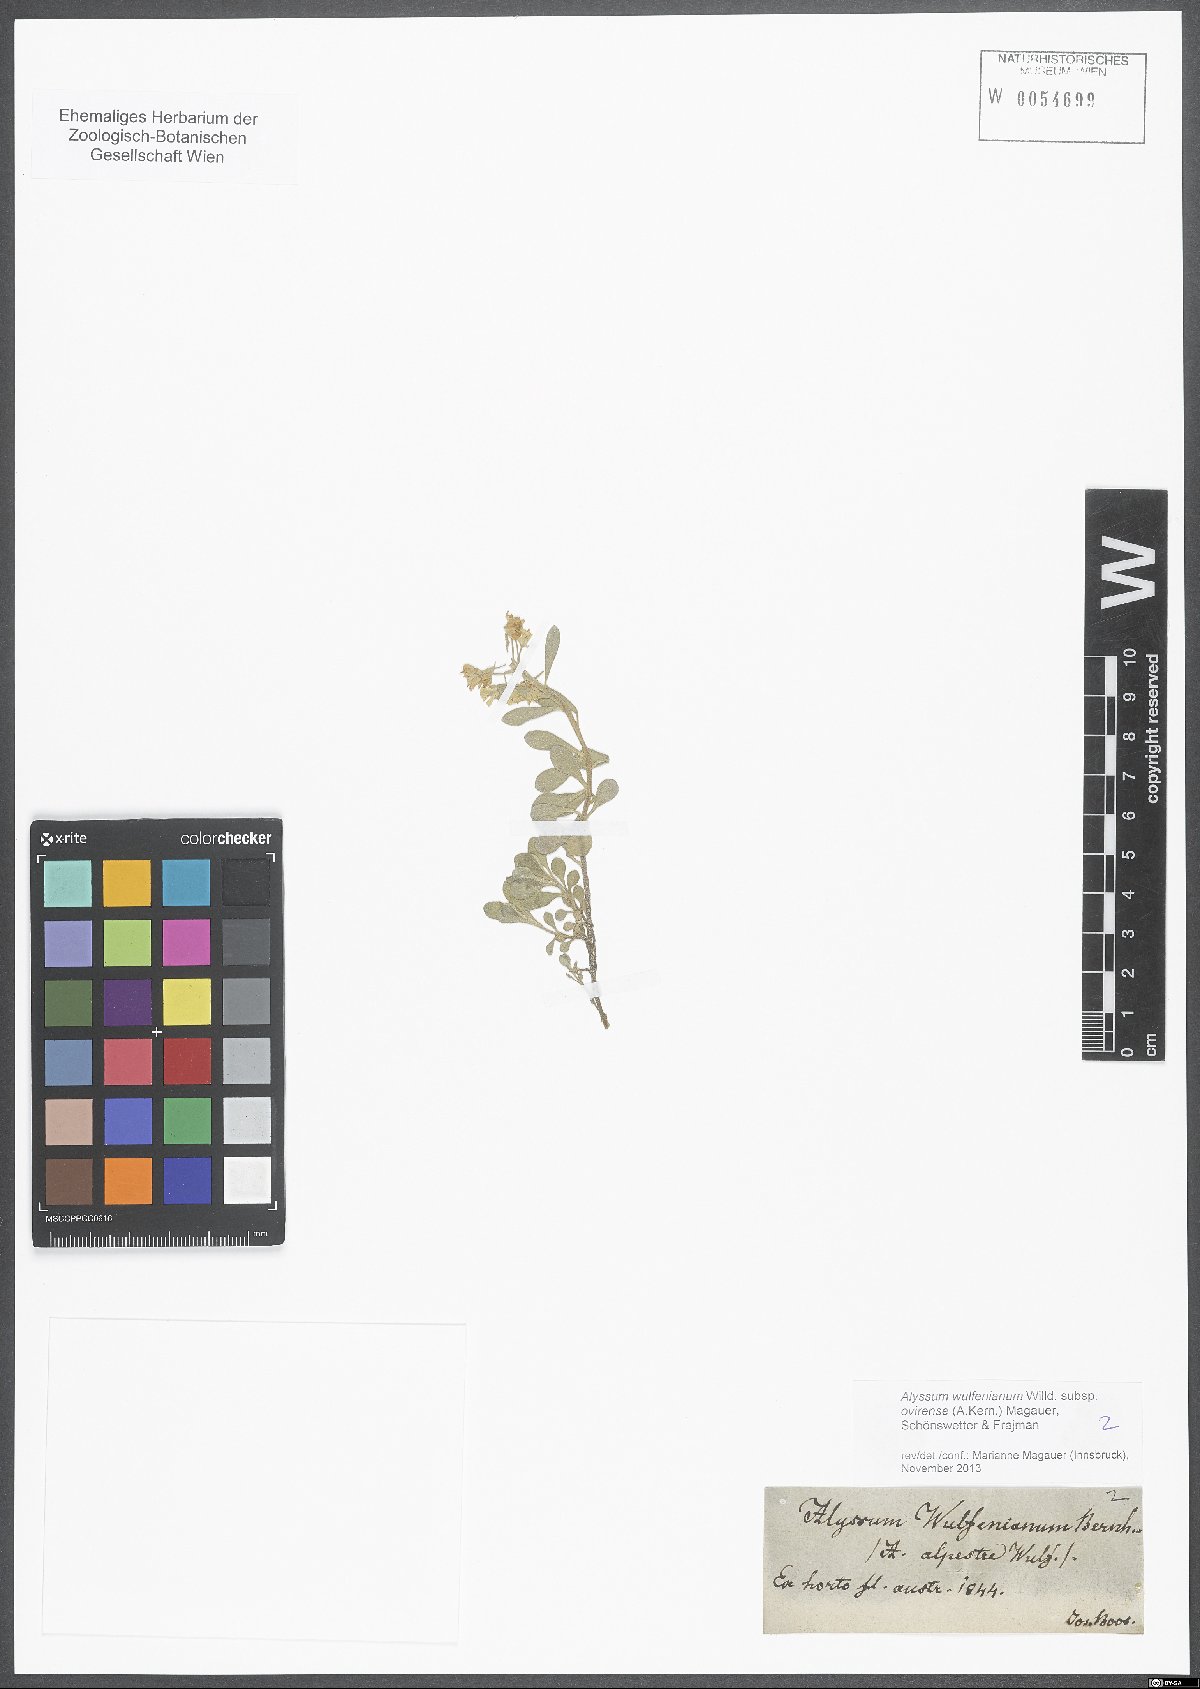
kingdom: Plantae
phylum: Tracheophyta
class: Magnoliopsida
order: Brassicales
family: Brassicaceae
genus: Alyssum
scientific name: Alyssum wulfenianum
